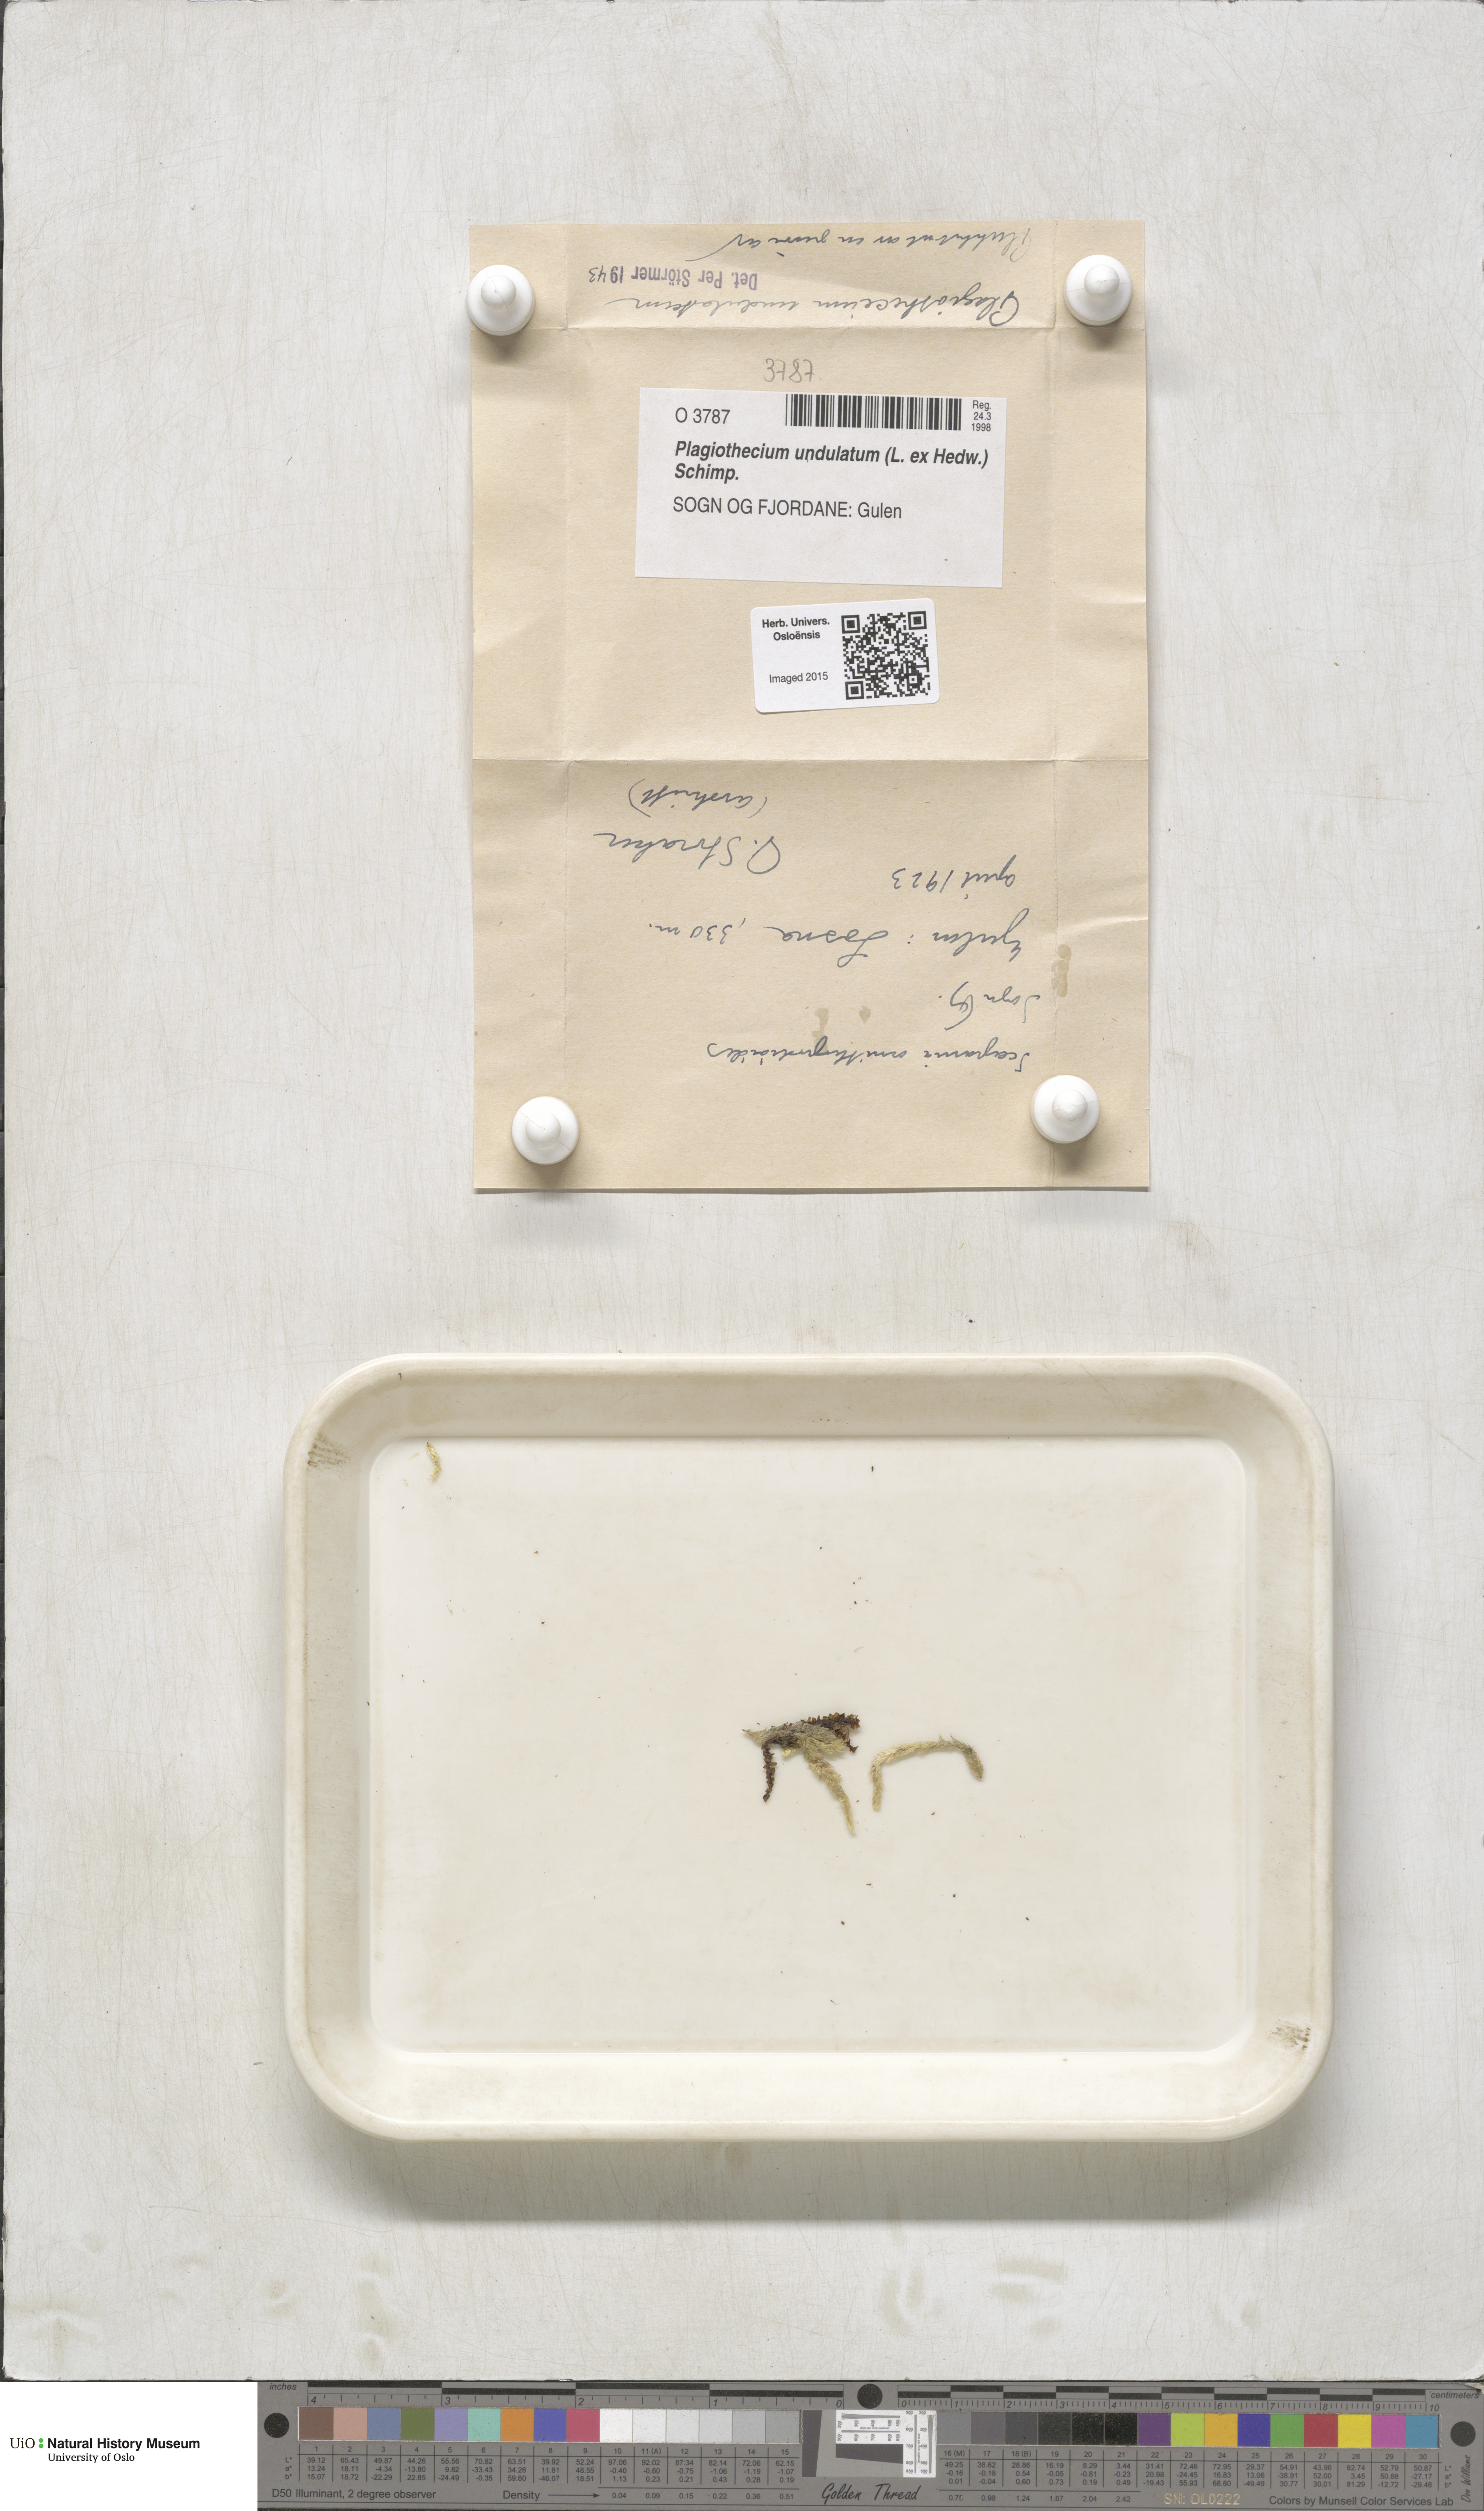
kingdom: Plantae
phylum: Bryophyta
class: Bryopsida
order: Hypnales
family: Plagiotheciaceae
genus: Plagiothecium
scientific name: Plagiothecium undulatum
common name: Waved silk-moss
